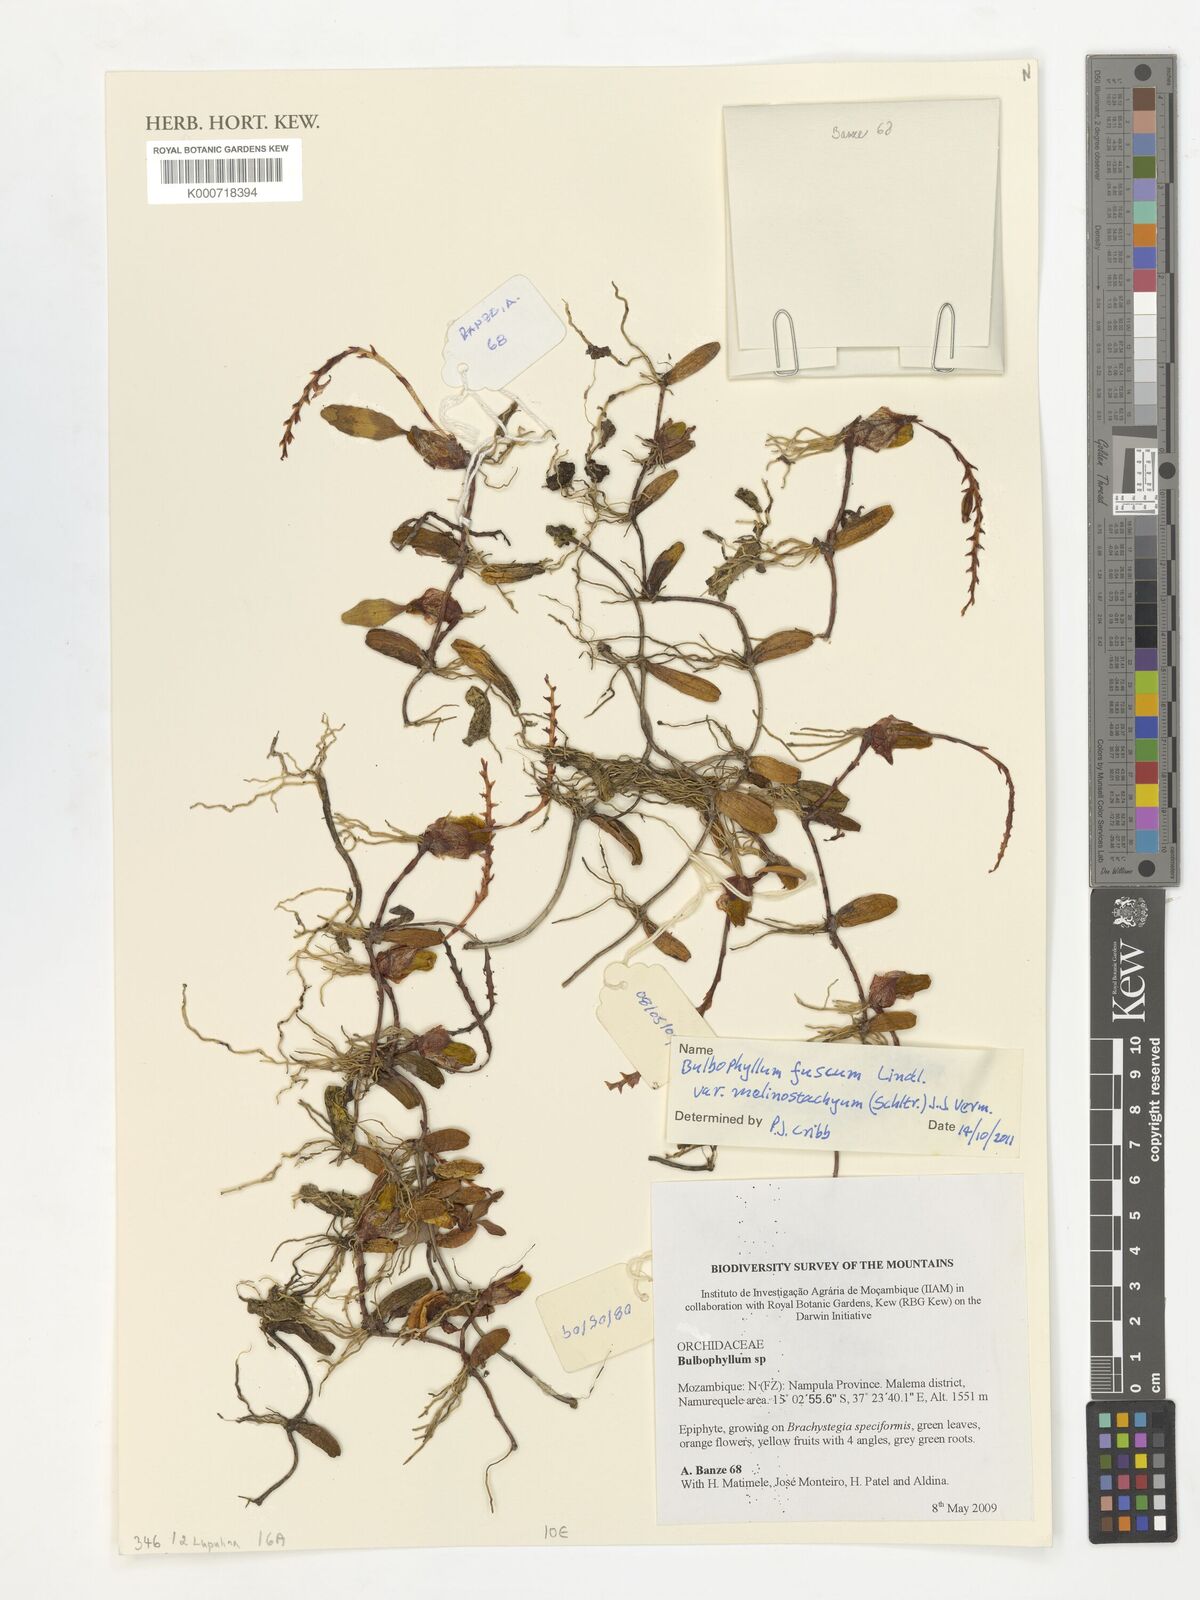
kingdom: Plantae
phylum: Tracheophyta
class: Liliopsida
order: Asparagales
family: Orchidaceae
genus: Bulbophyllum
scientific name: Bulbophyllum fuscum
